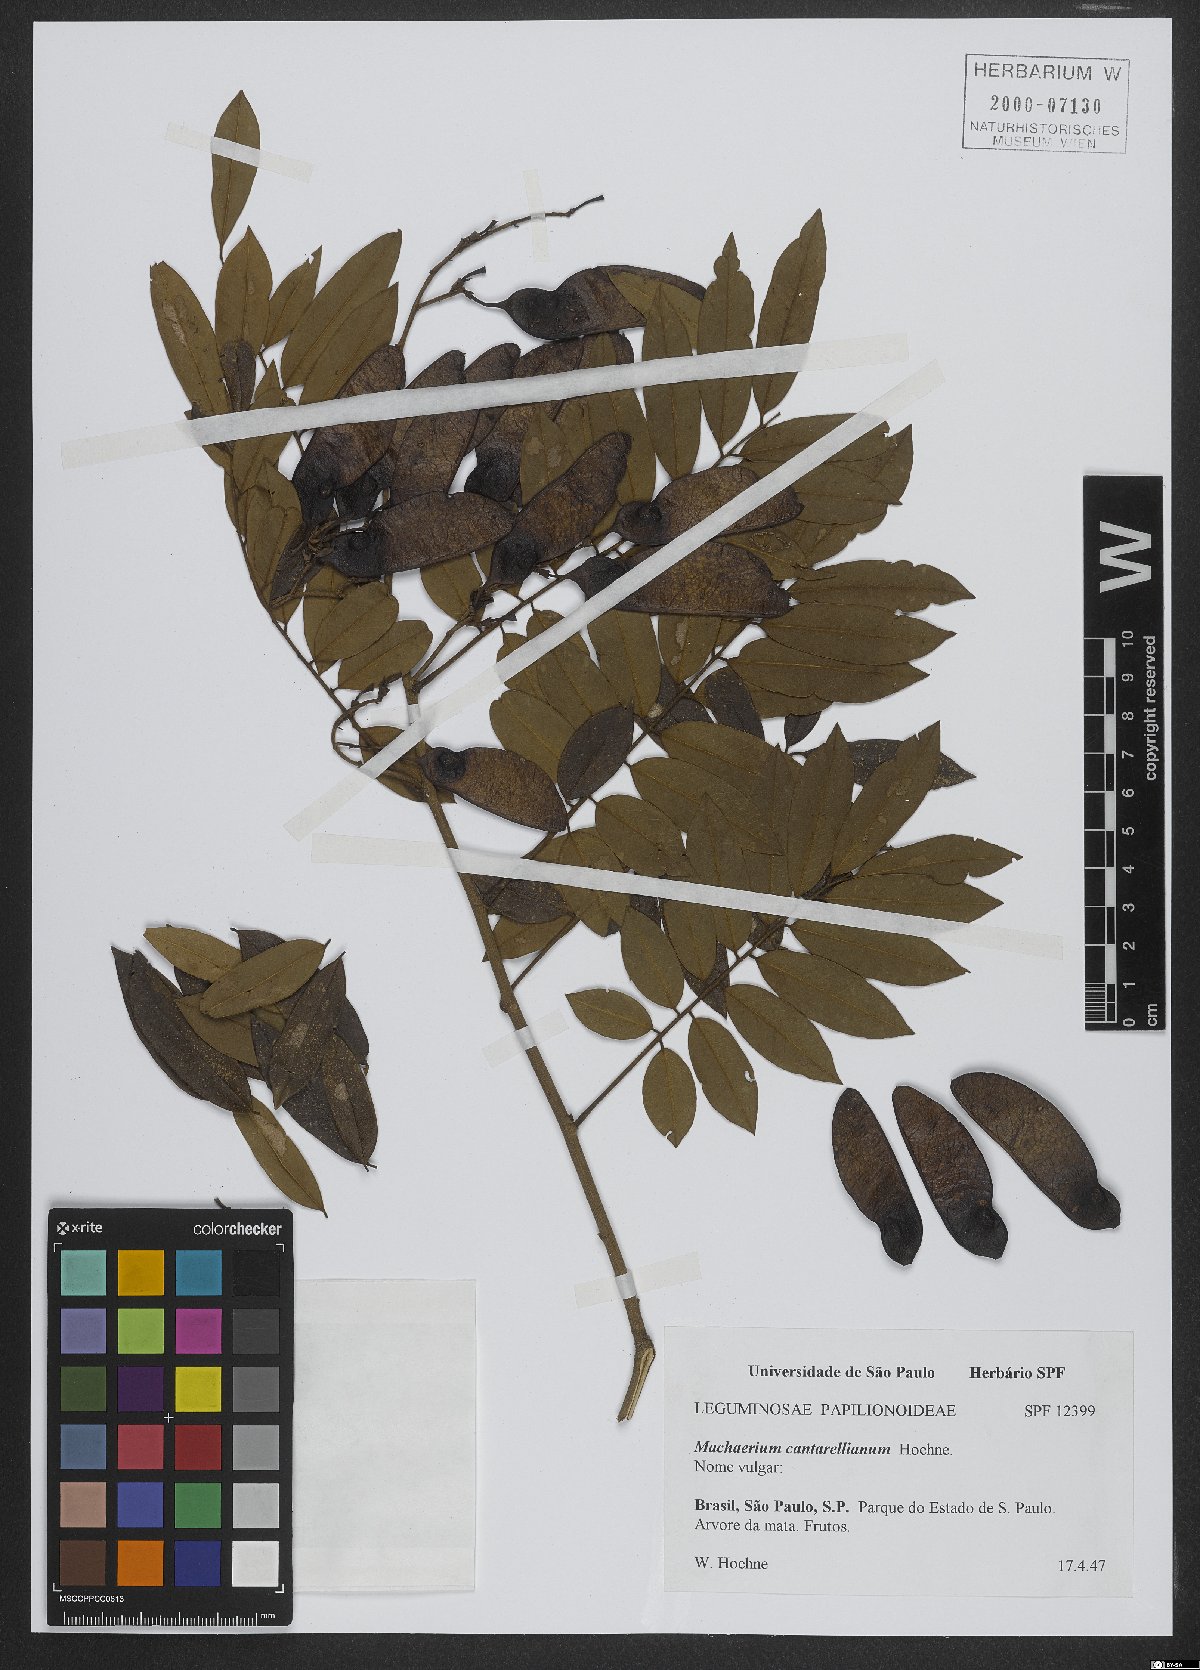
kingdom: Plantae
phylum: Tracheophyta
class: Magnoliopsida
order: Fabales
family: Fabaceae
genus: Machaerium
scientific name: Machaerium cantarellianum
